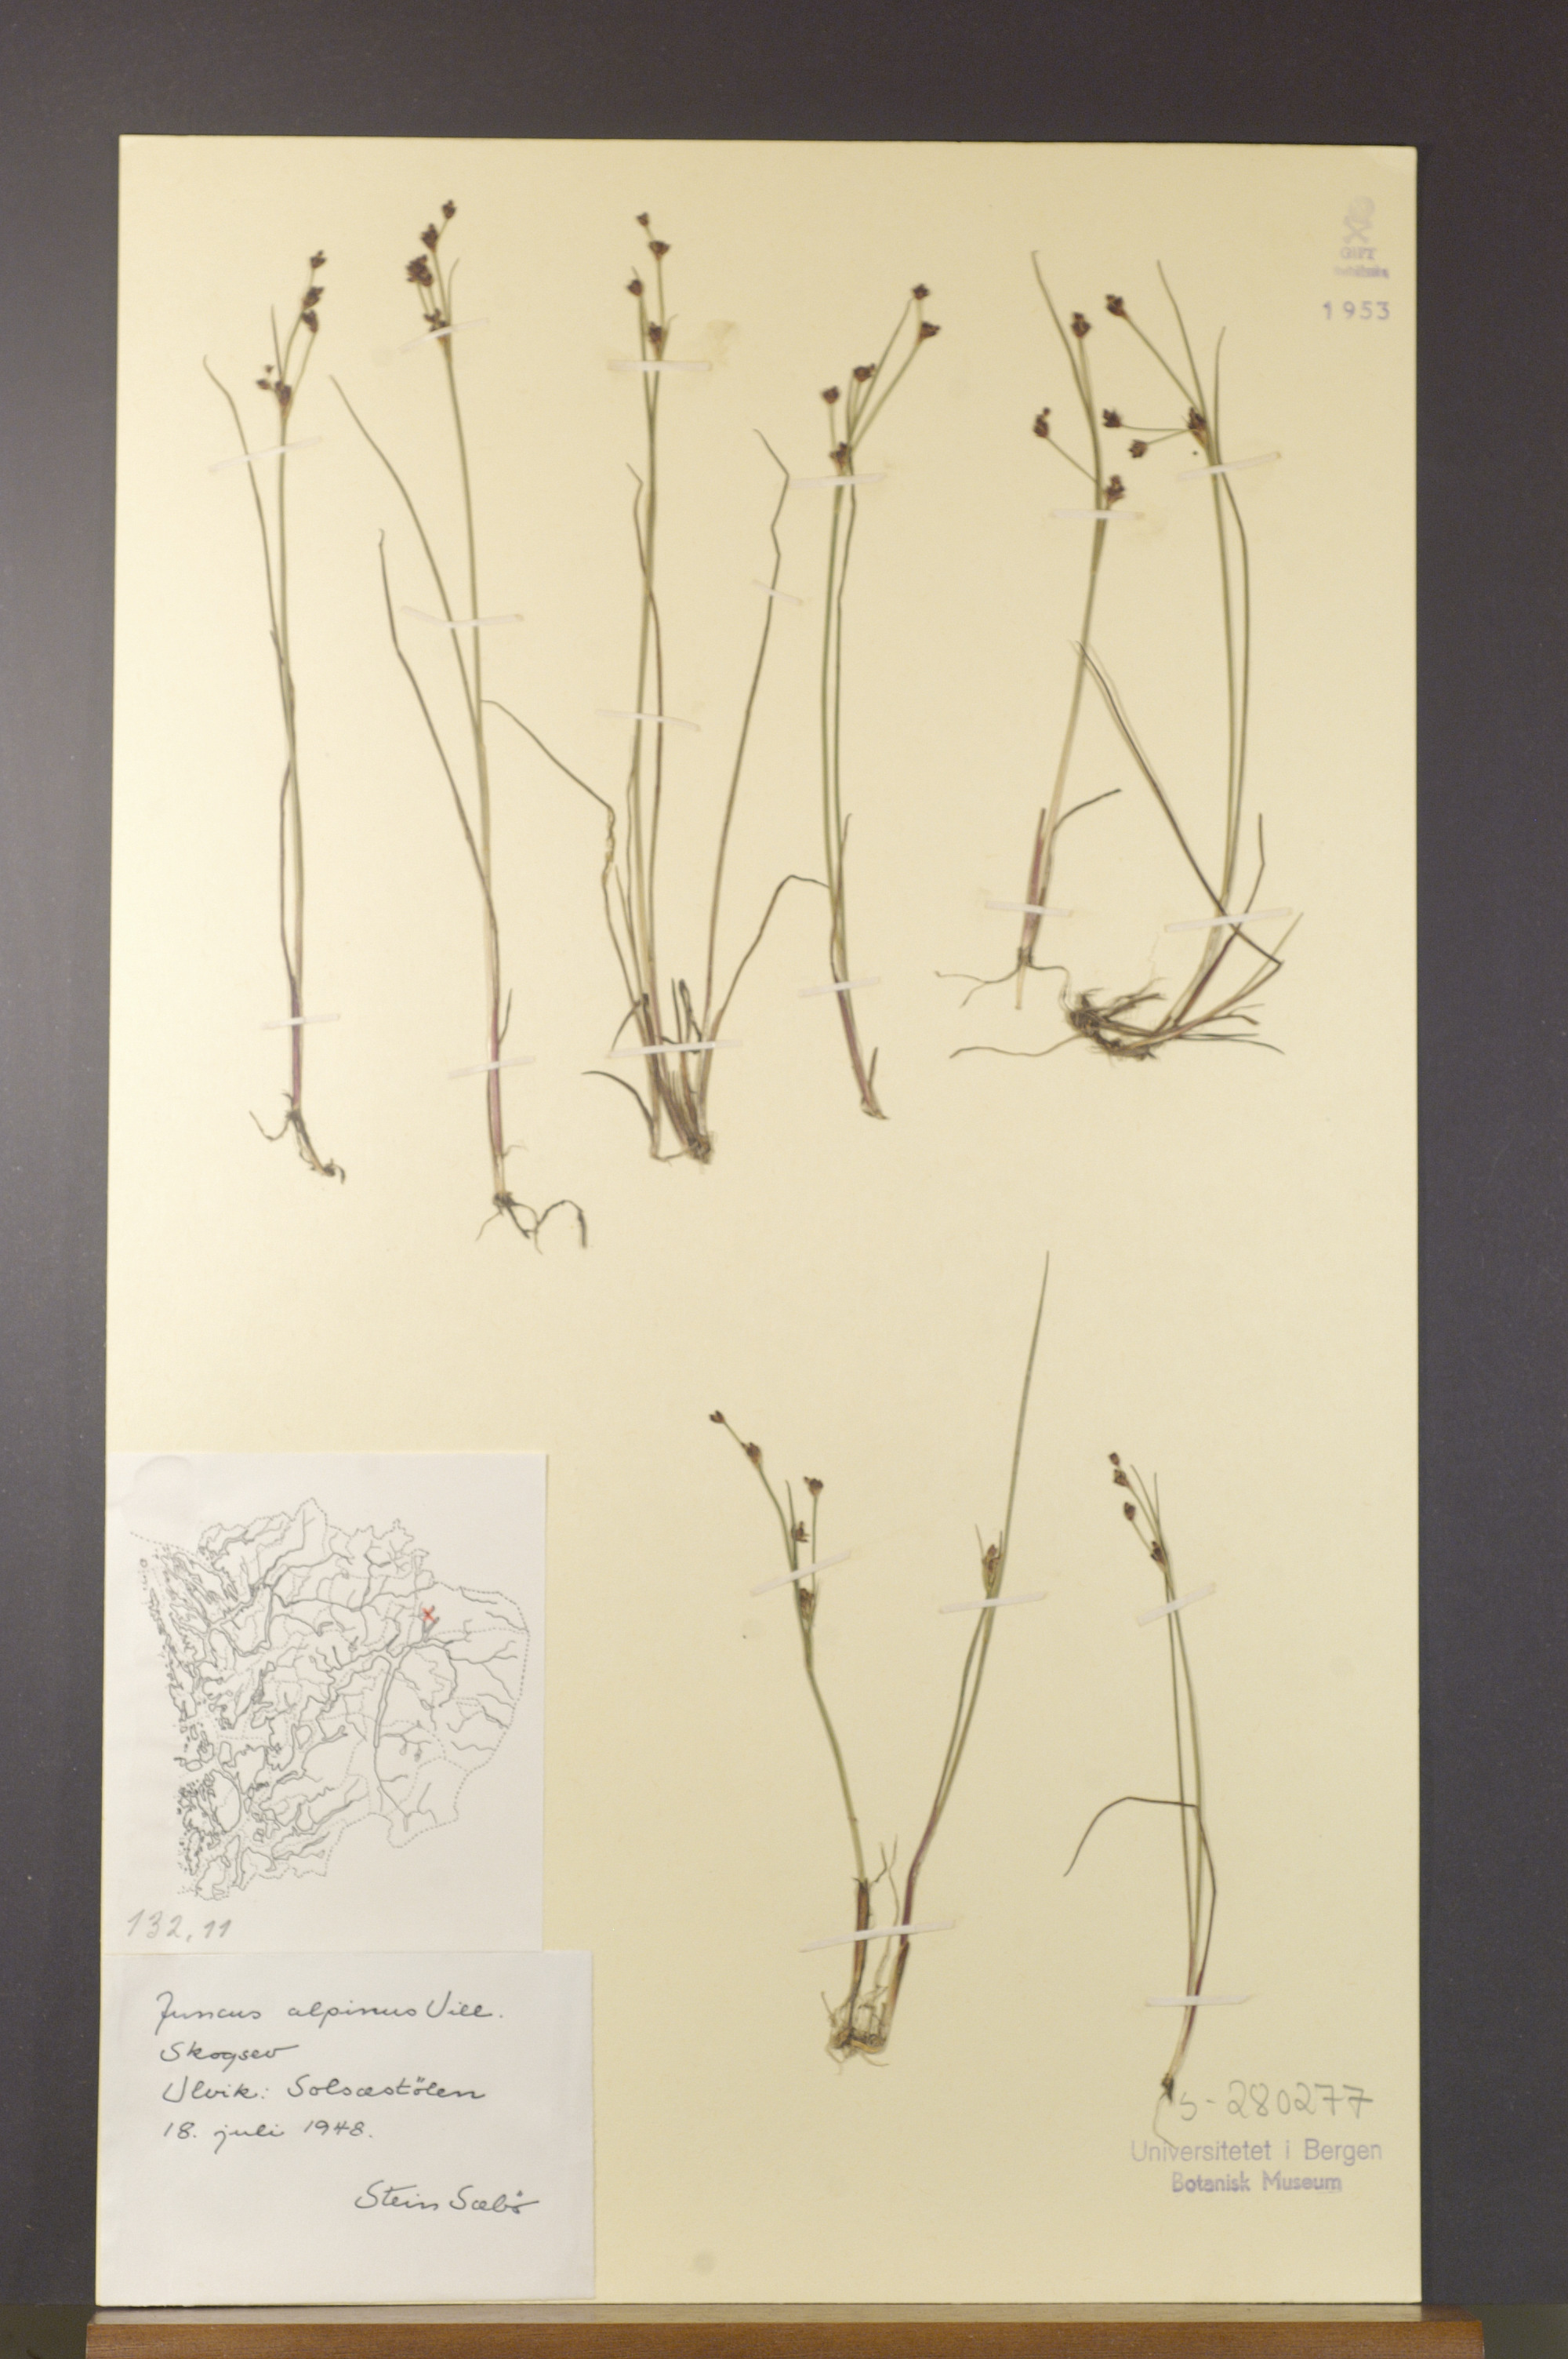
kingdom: Plantae
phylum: Tracheophyta
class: Liliopsida
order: Poales
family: Juncaceae
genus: Juncus
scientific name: Juncus alpinoarticulatus
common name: Alpine rush
